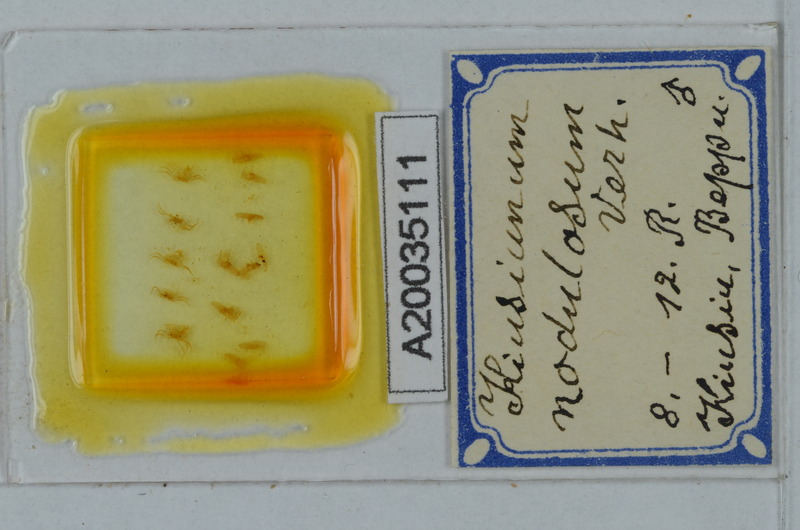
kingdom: Animalia
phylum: Arthropoda
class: Diplopoda
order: Polydesmida
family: Cryptodesmidae
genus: Kiusiunum
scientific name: Kiusiunum nodulosum
